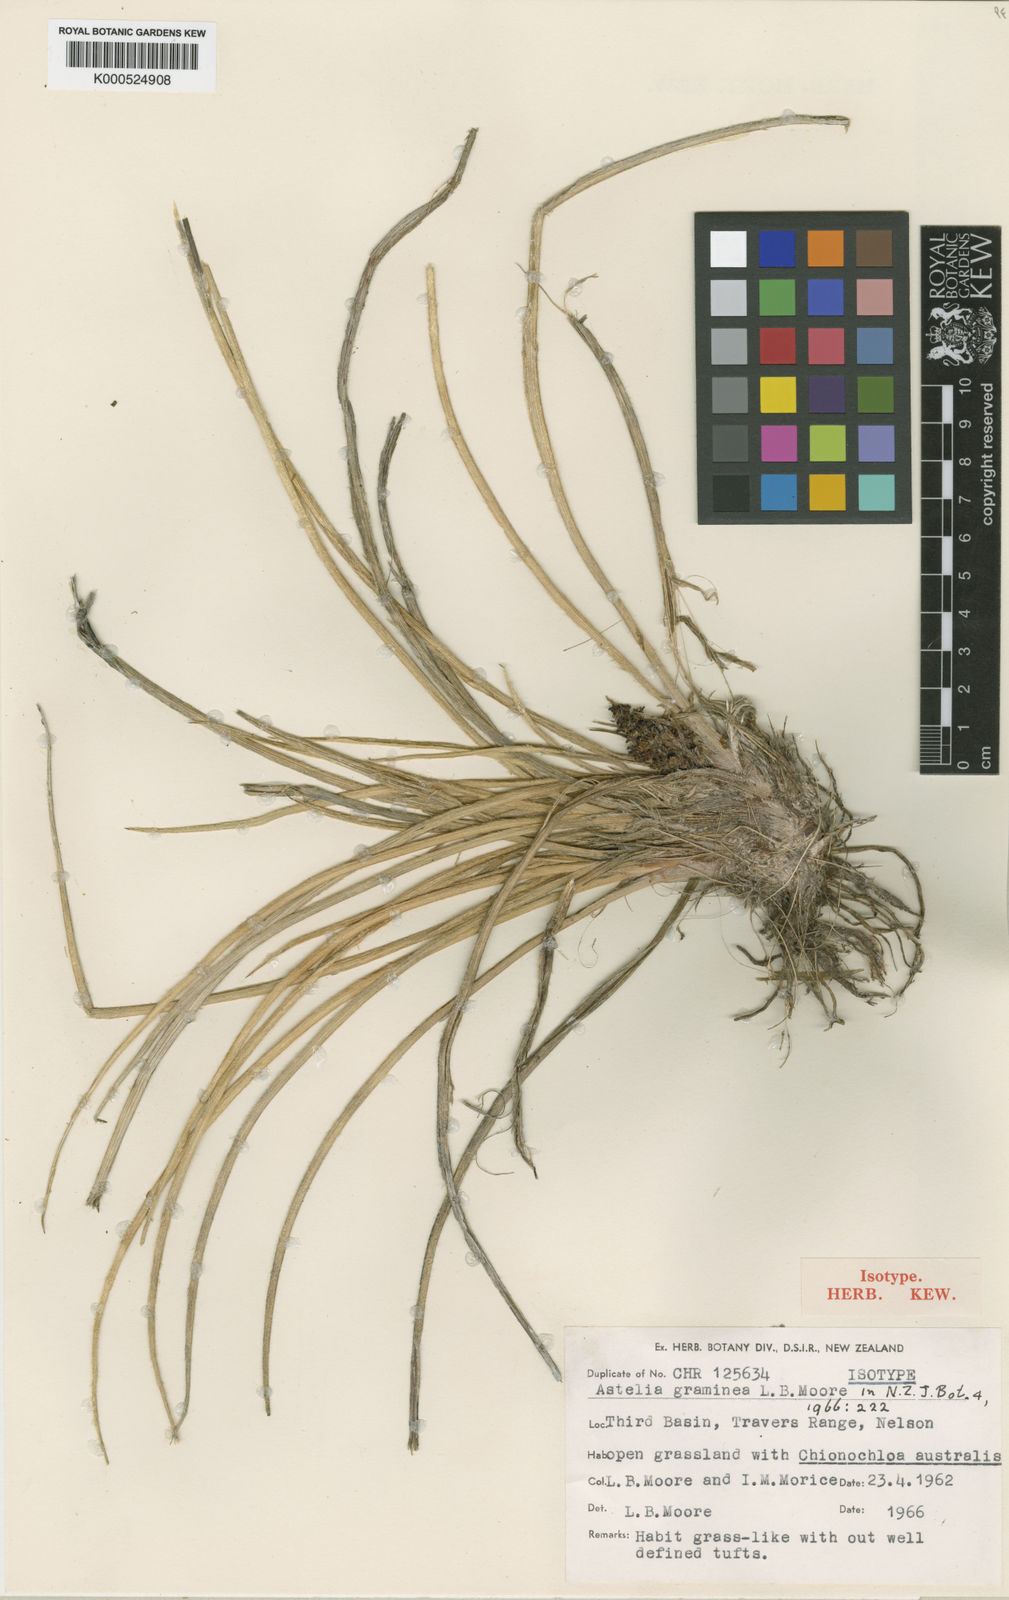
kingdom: Plantae
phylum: Tracheophyta
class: Liliopsida
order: Asparagales
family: Asteliaceae
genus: Astelia
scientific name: Astelia graminea
